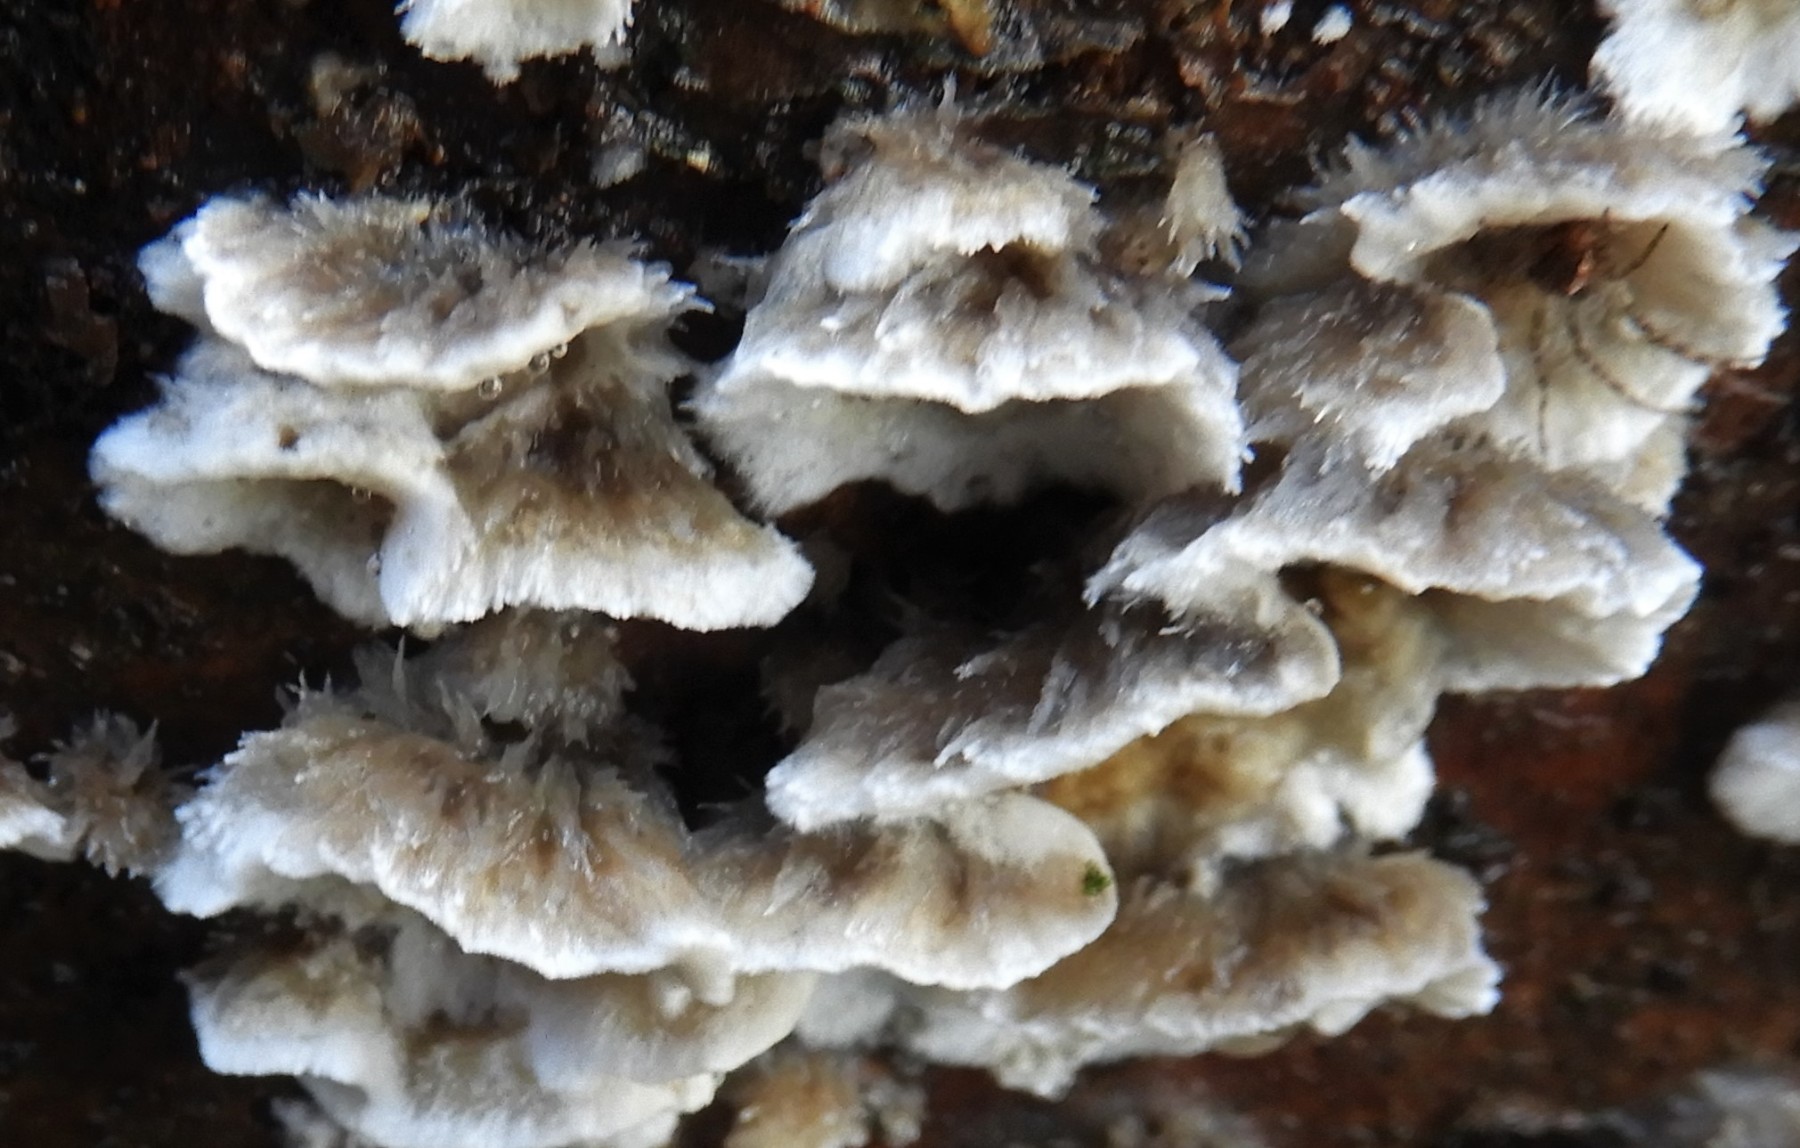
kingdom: Fungi
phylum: Basidiomycota
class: Agaricomycetes
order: Polyporales
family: Phanerochaetaceae
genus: Bjerkandera
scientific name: Bjerkandera adusta
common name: sveden sodporesvamp
